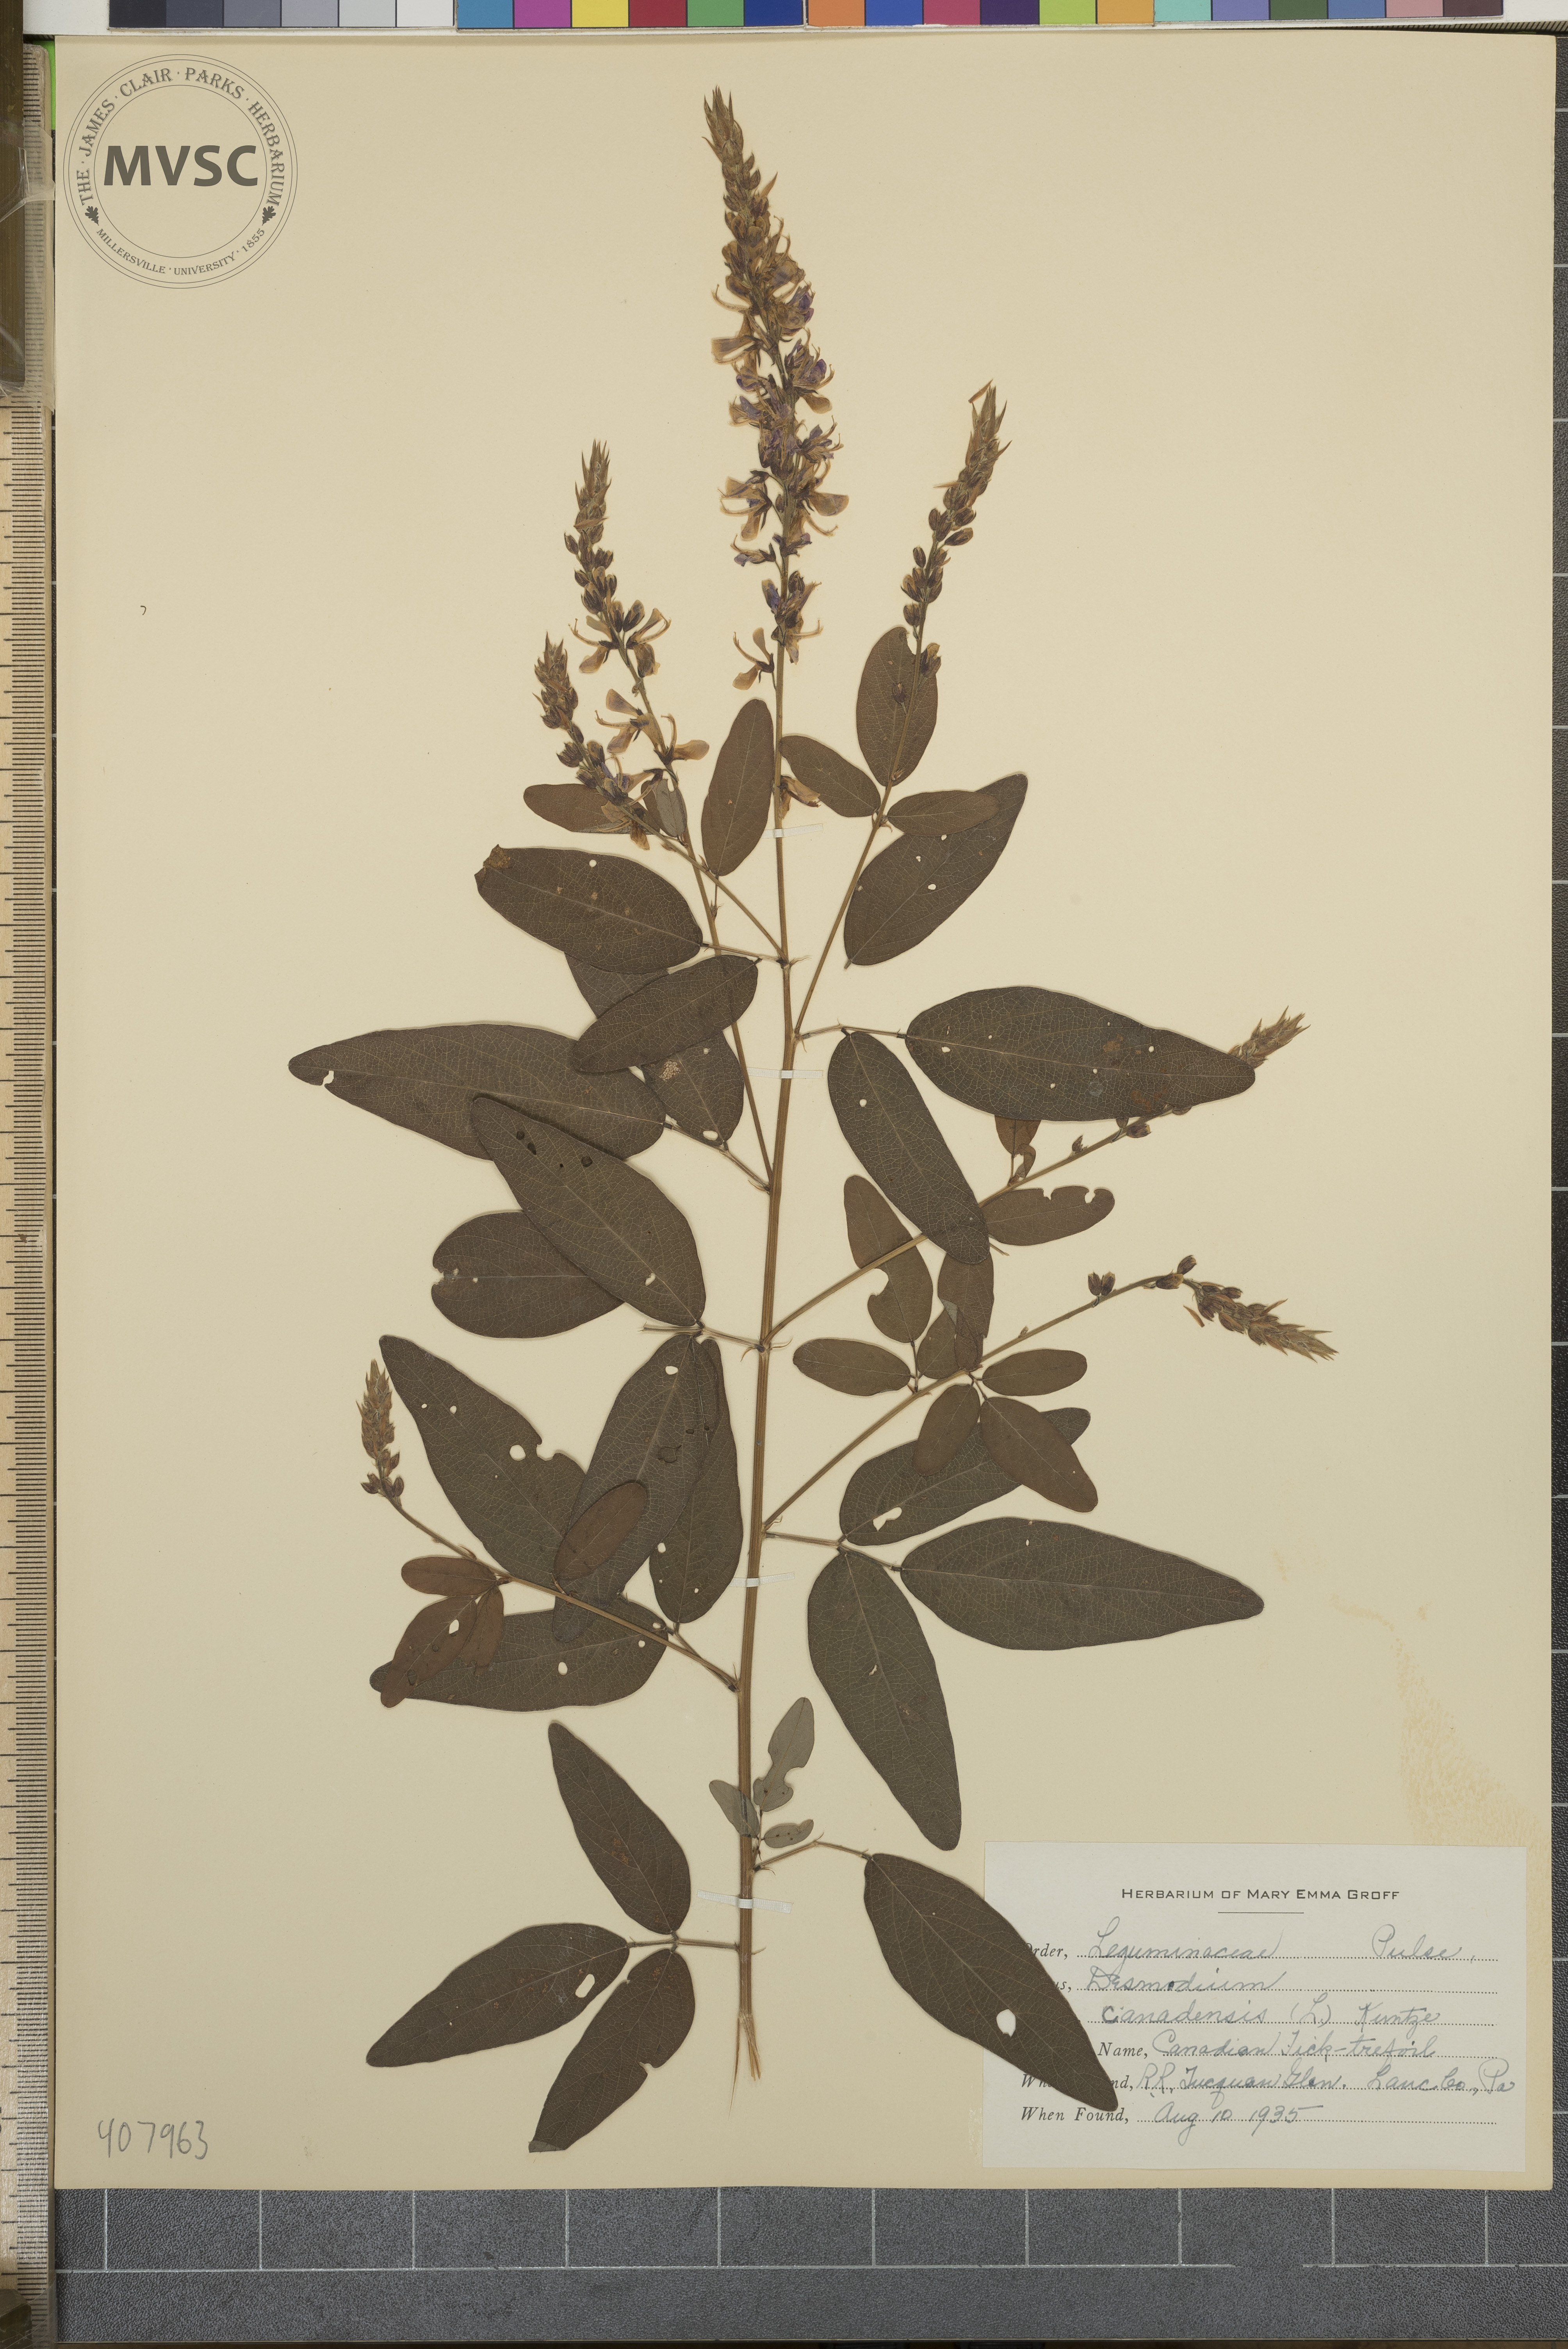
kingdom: Plantae
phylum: Tracheophyta
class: Magnoliopsida
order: Fabales
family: Fabaceae
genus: Desmodium
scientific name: Desmodium canadense
